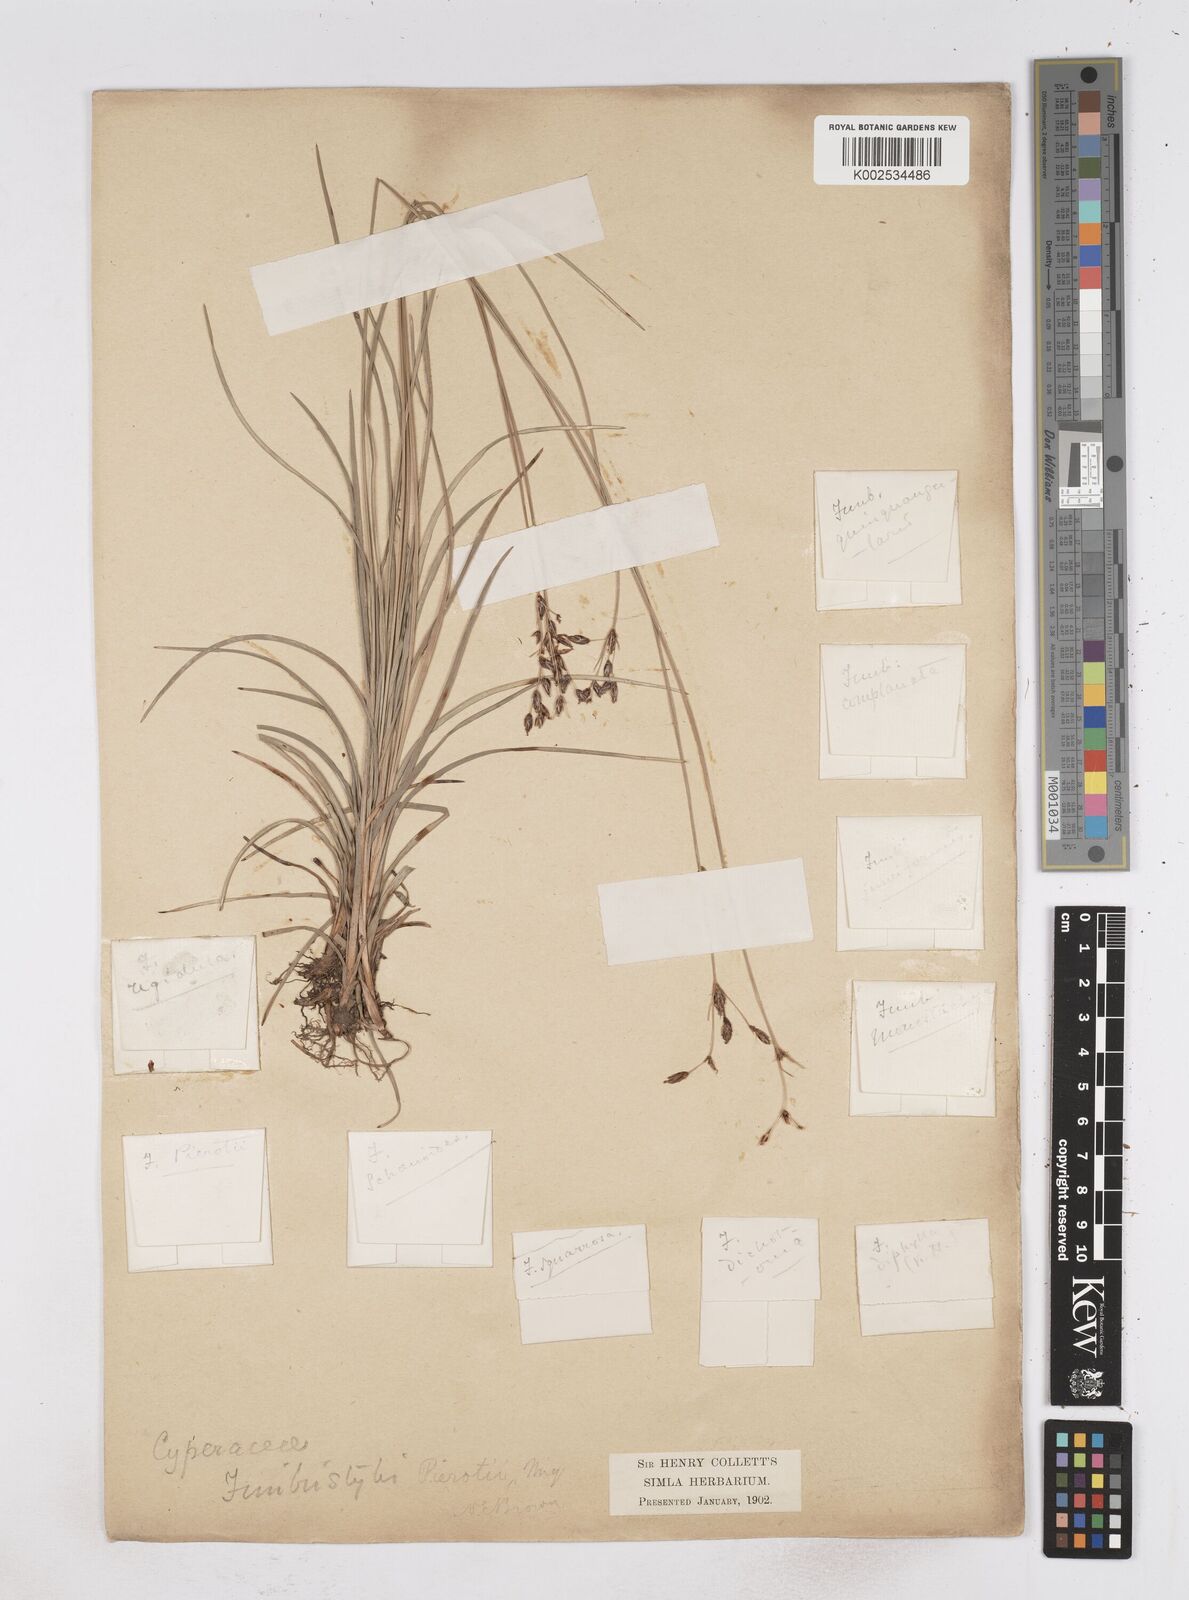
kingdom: Plantae
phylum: Tracheophyta
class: Liliopsida
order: Poales
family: Cyperaceae
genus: Fimbristylis
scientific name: Fimbristylis pierotii
